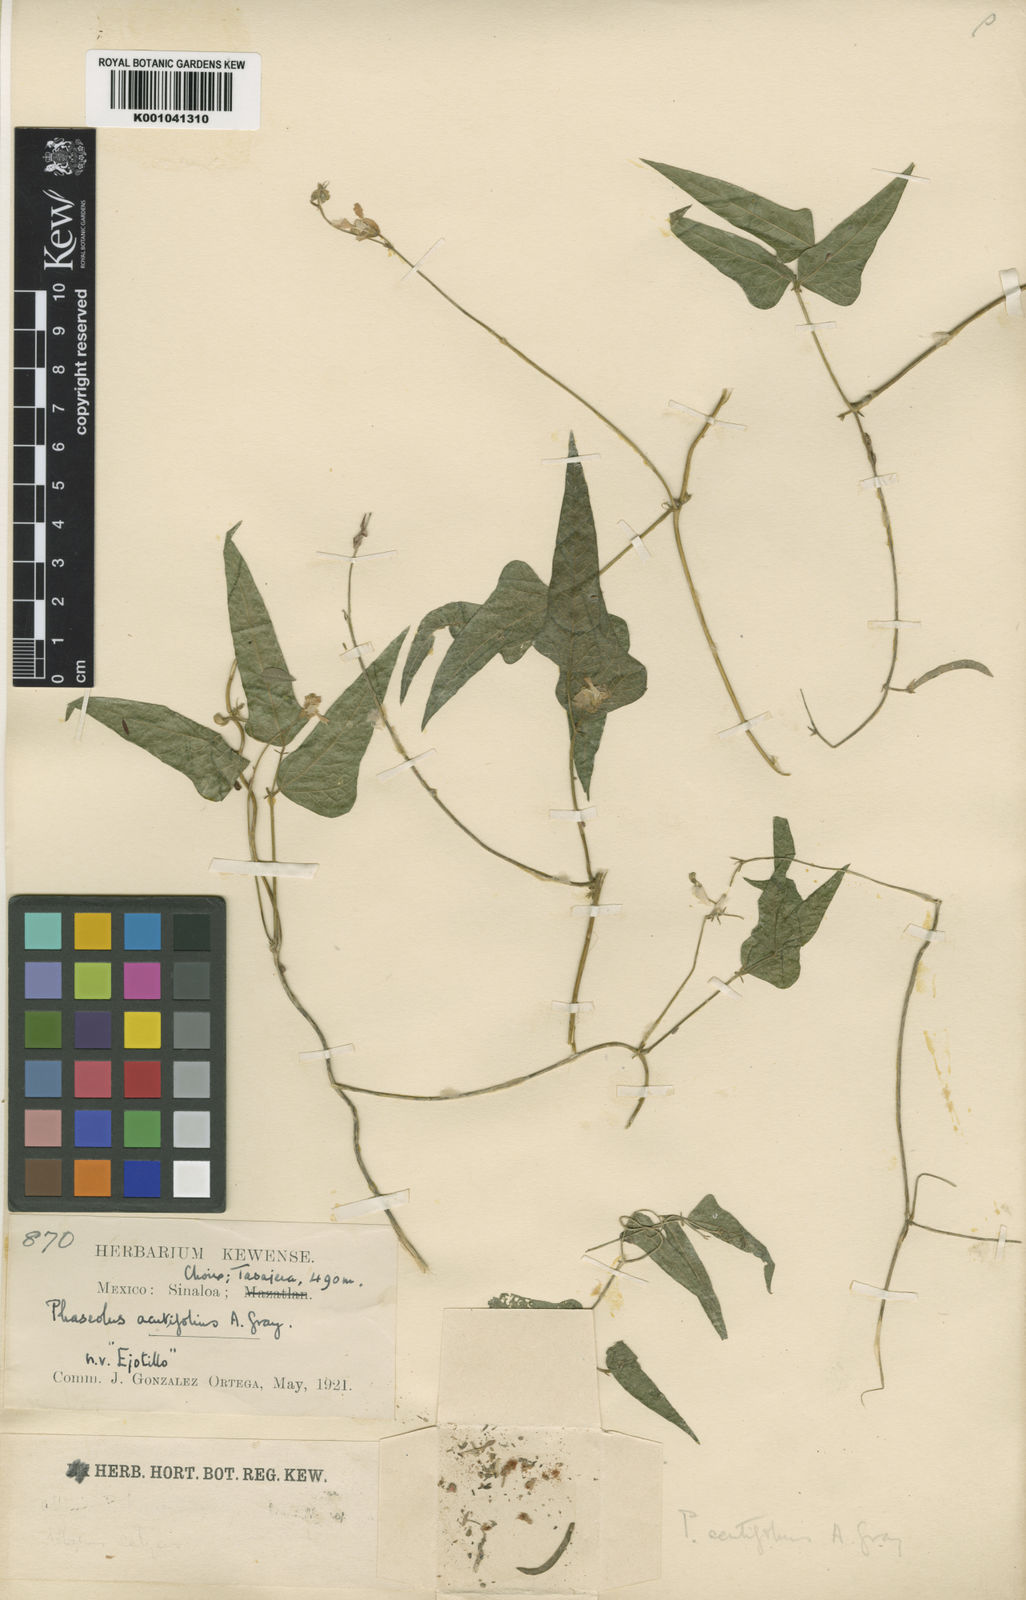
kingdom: Plantae
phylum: Tracheophyta
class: Magnoliopsida
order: Fabales
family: Fabaceae
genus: Phaseolus
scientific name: Phaseolus acutifolius
